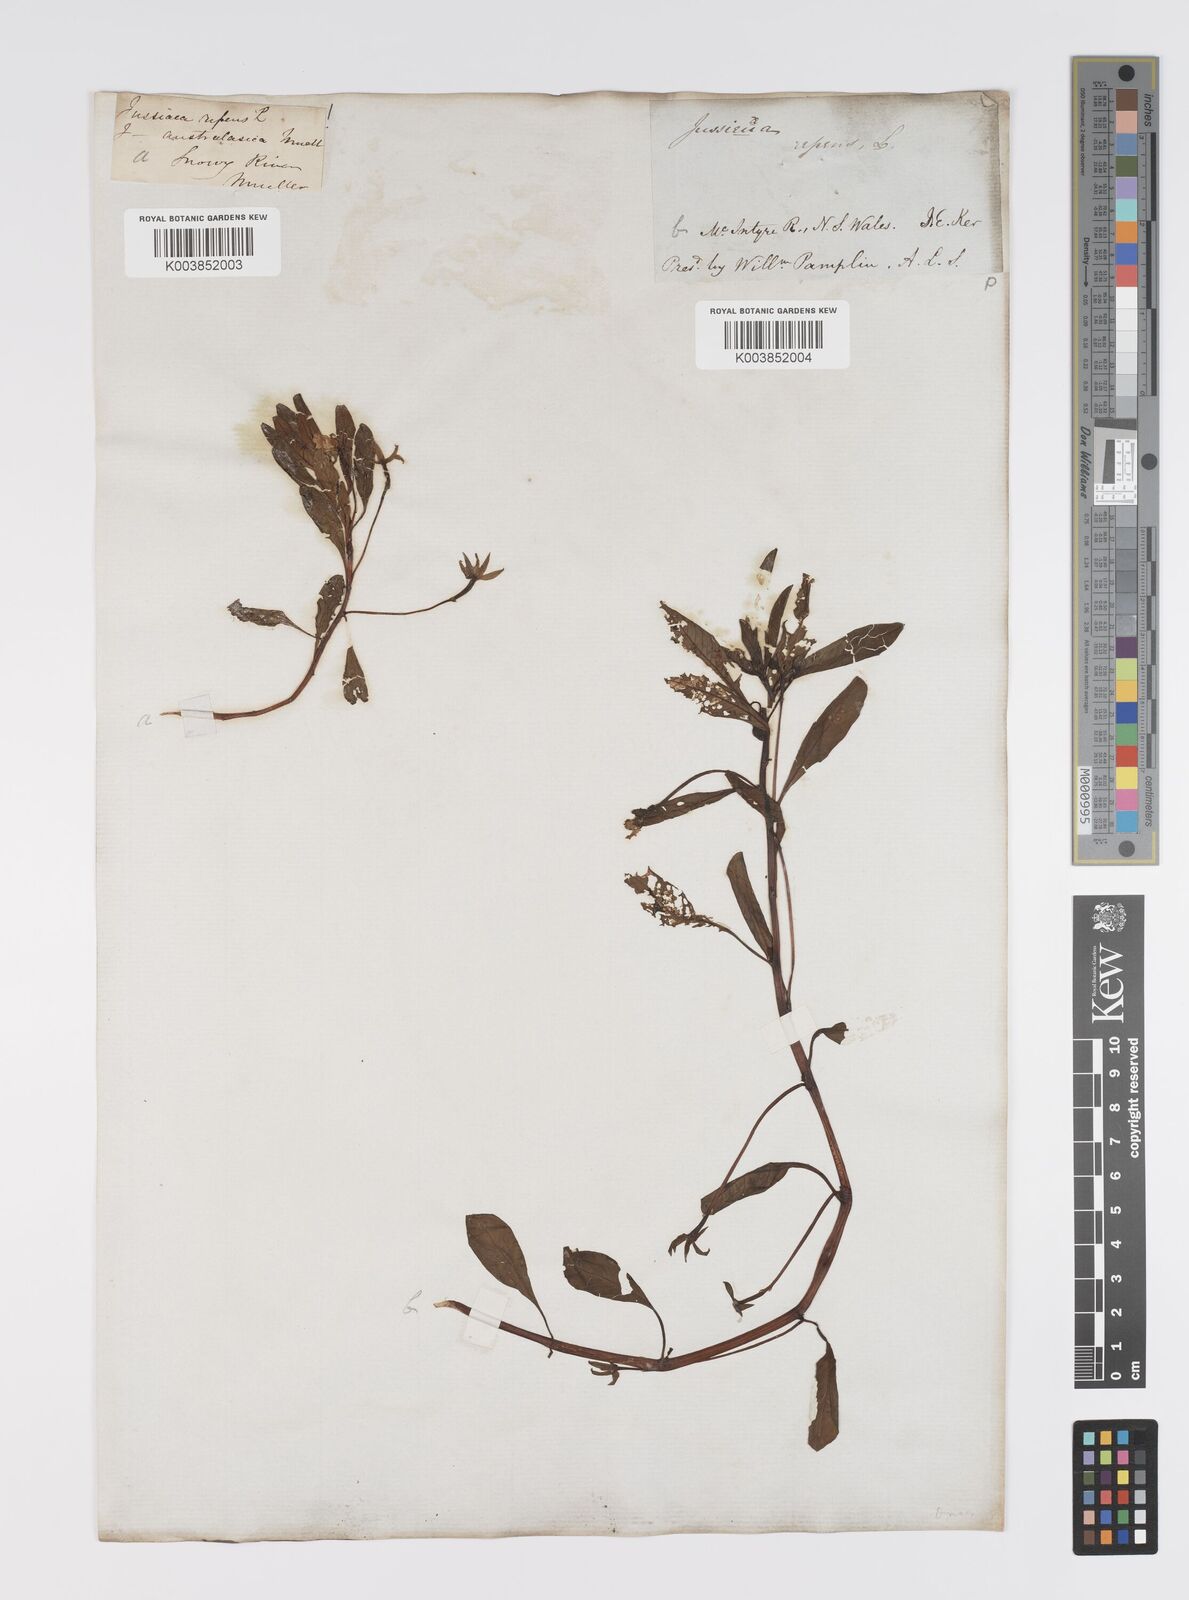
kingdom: Plantae
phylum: Tracheophyta
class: Magnoliopsida
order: Myrtales
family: Onagraceae
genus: Ludwigia
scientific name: Ludwigia peploides
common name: Floating primrose-willow
